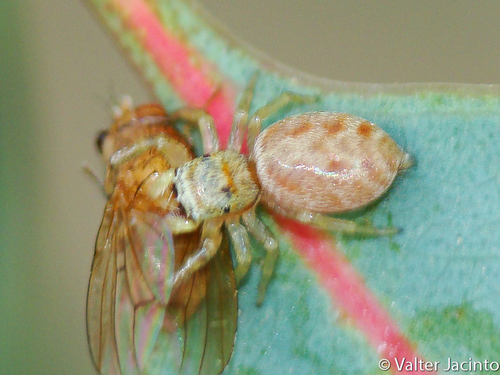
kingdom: Animalia
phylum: Arthropoda
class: Arachnida
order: Araneae
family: Salticidae
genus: Icius
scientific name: Icius
